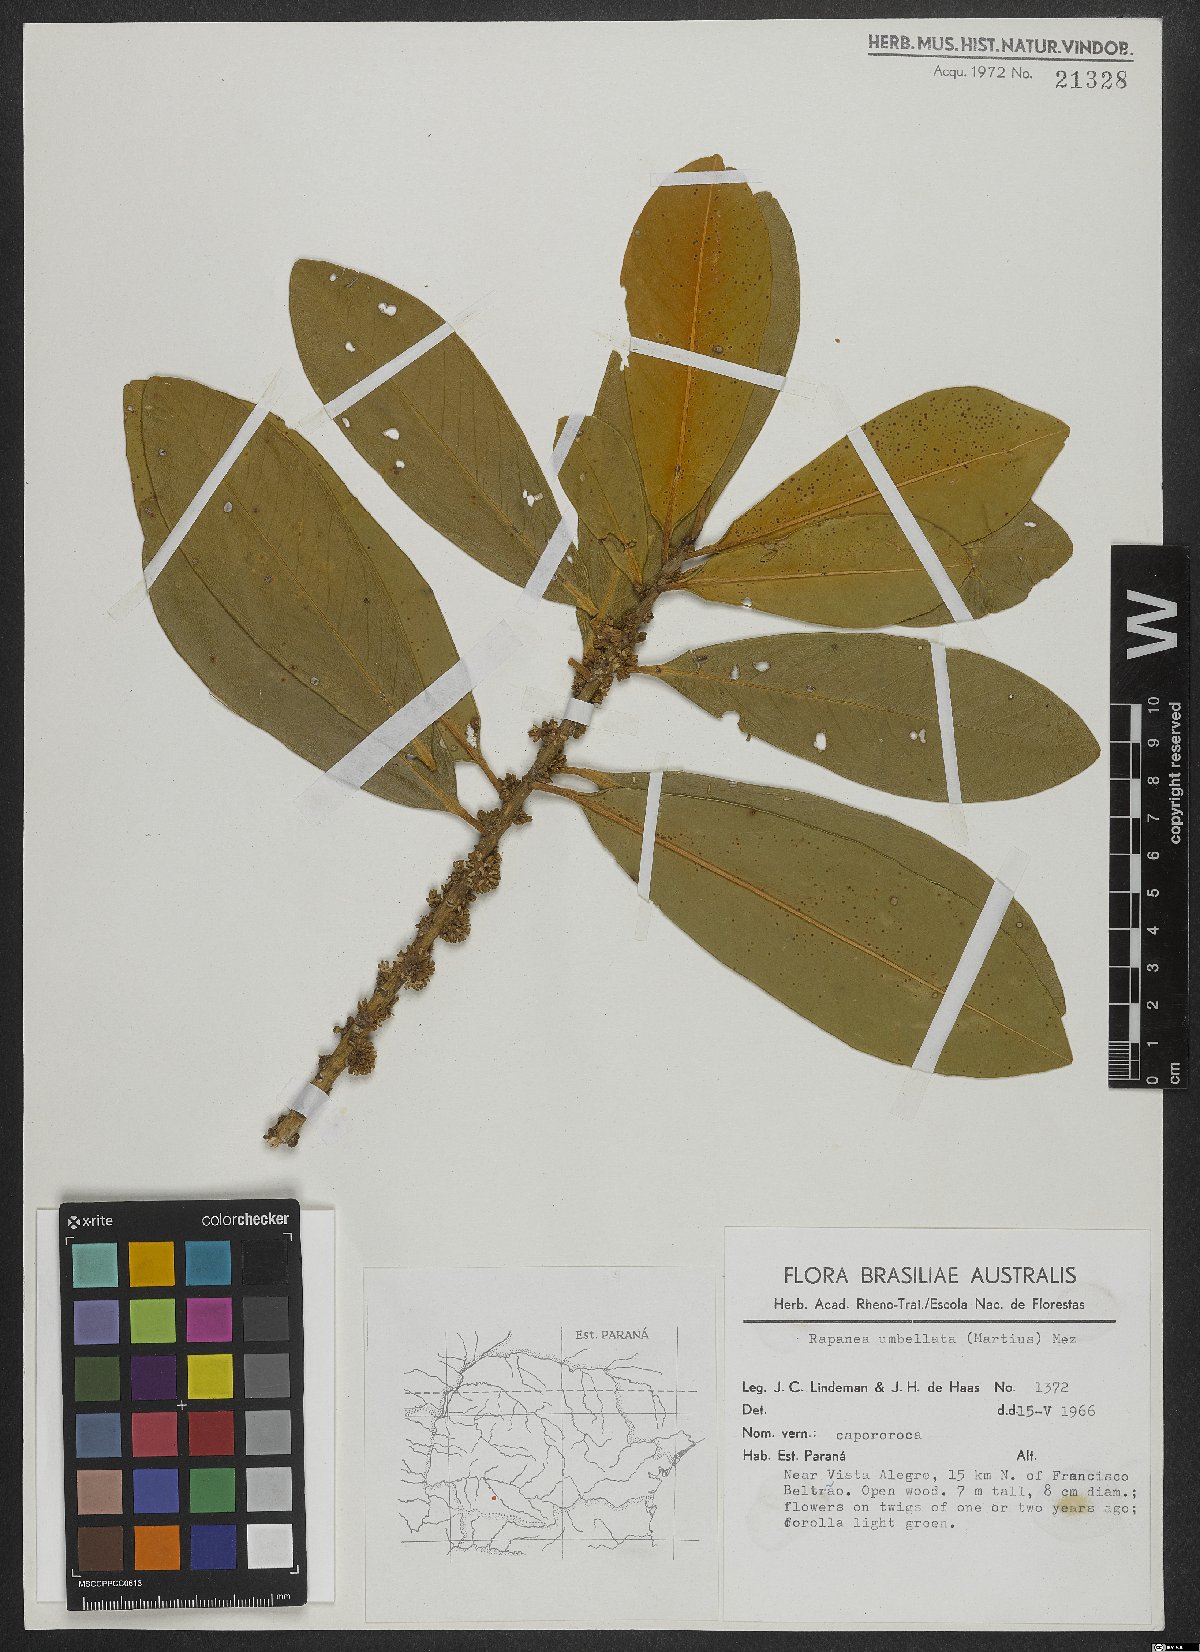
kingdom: Plantae
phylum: Tracheophyta
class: Magnoliopsida
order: Ericales
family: Primulaceae
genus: Myrsine
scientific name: Myrsine umbellata
